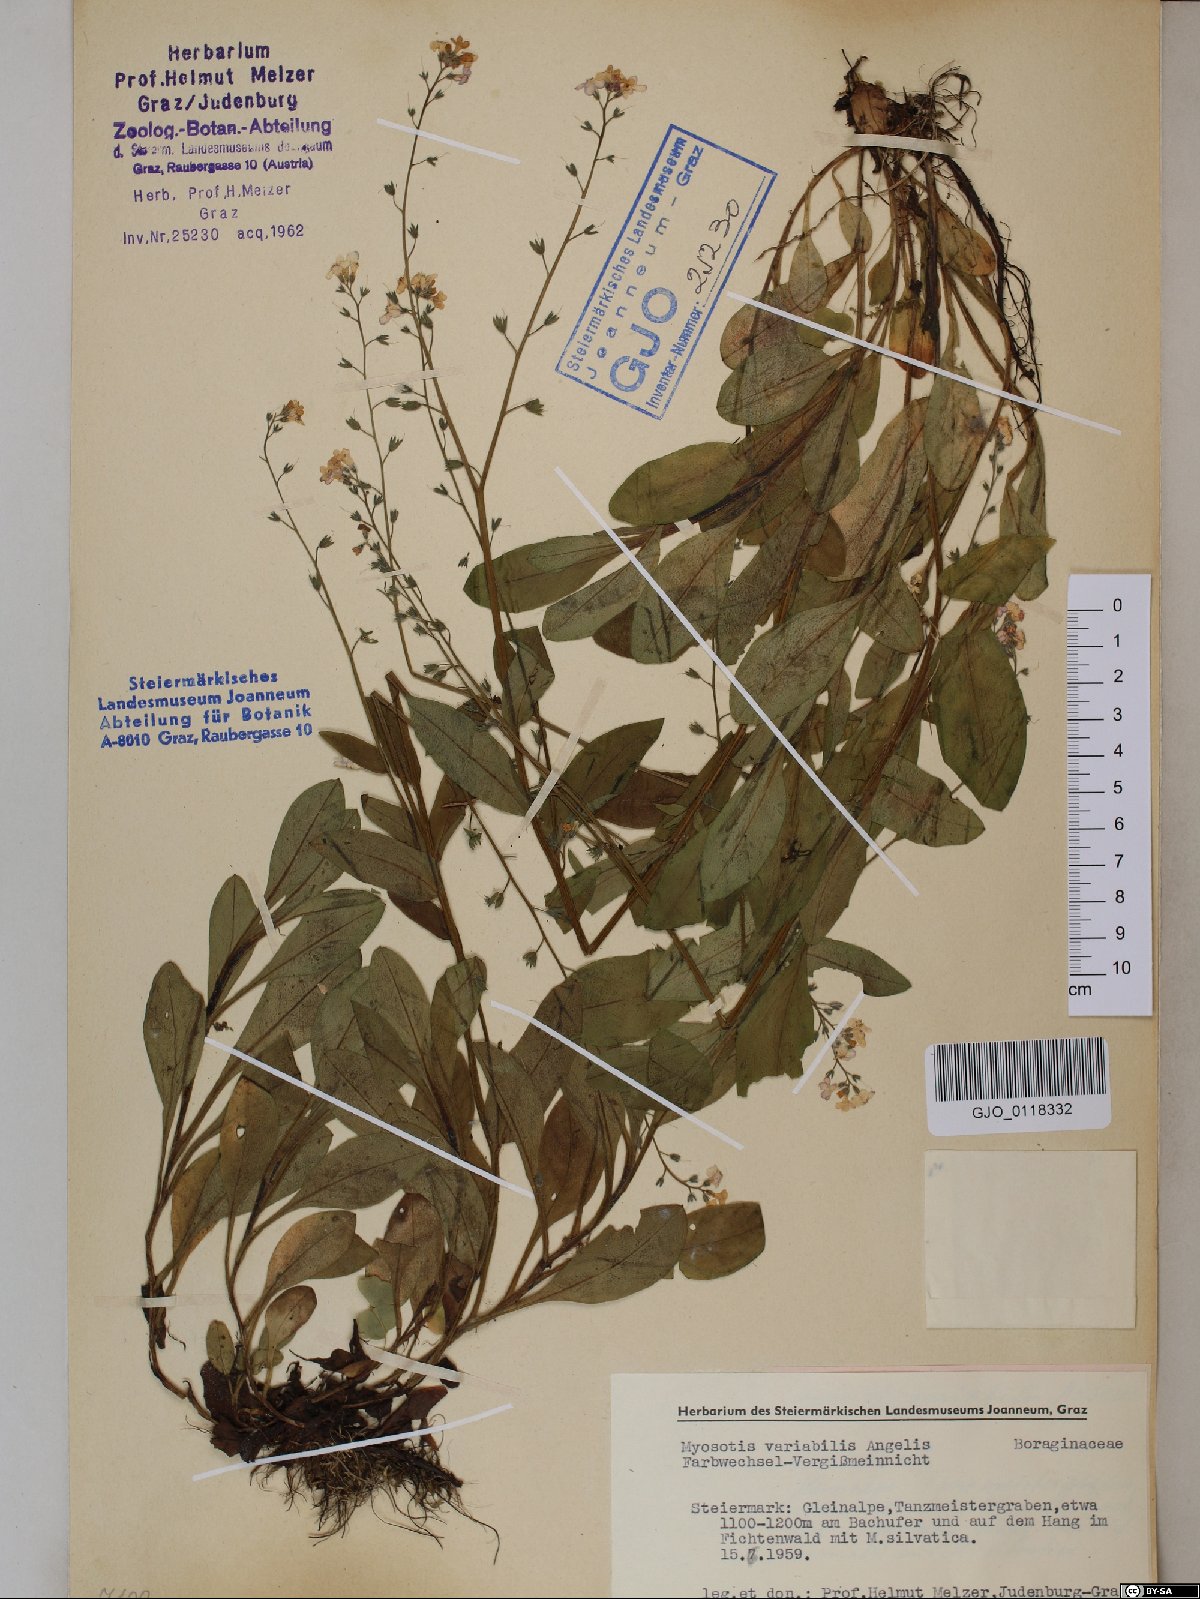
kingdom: Plantae
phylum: Tracheophyta
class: Magnoliopsida
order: Boraginales
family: Boraginaceae
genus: Myosotis
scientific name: Myosotis decumbens
